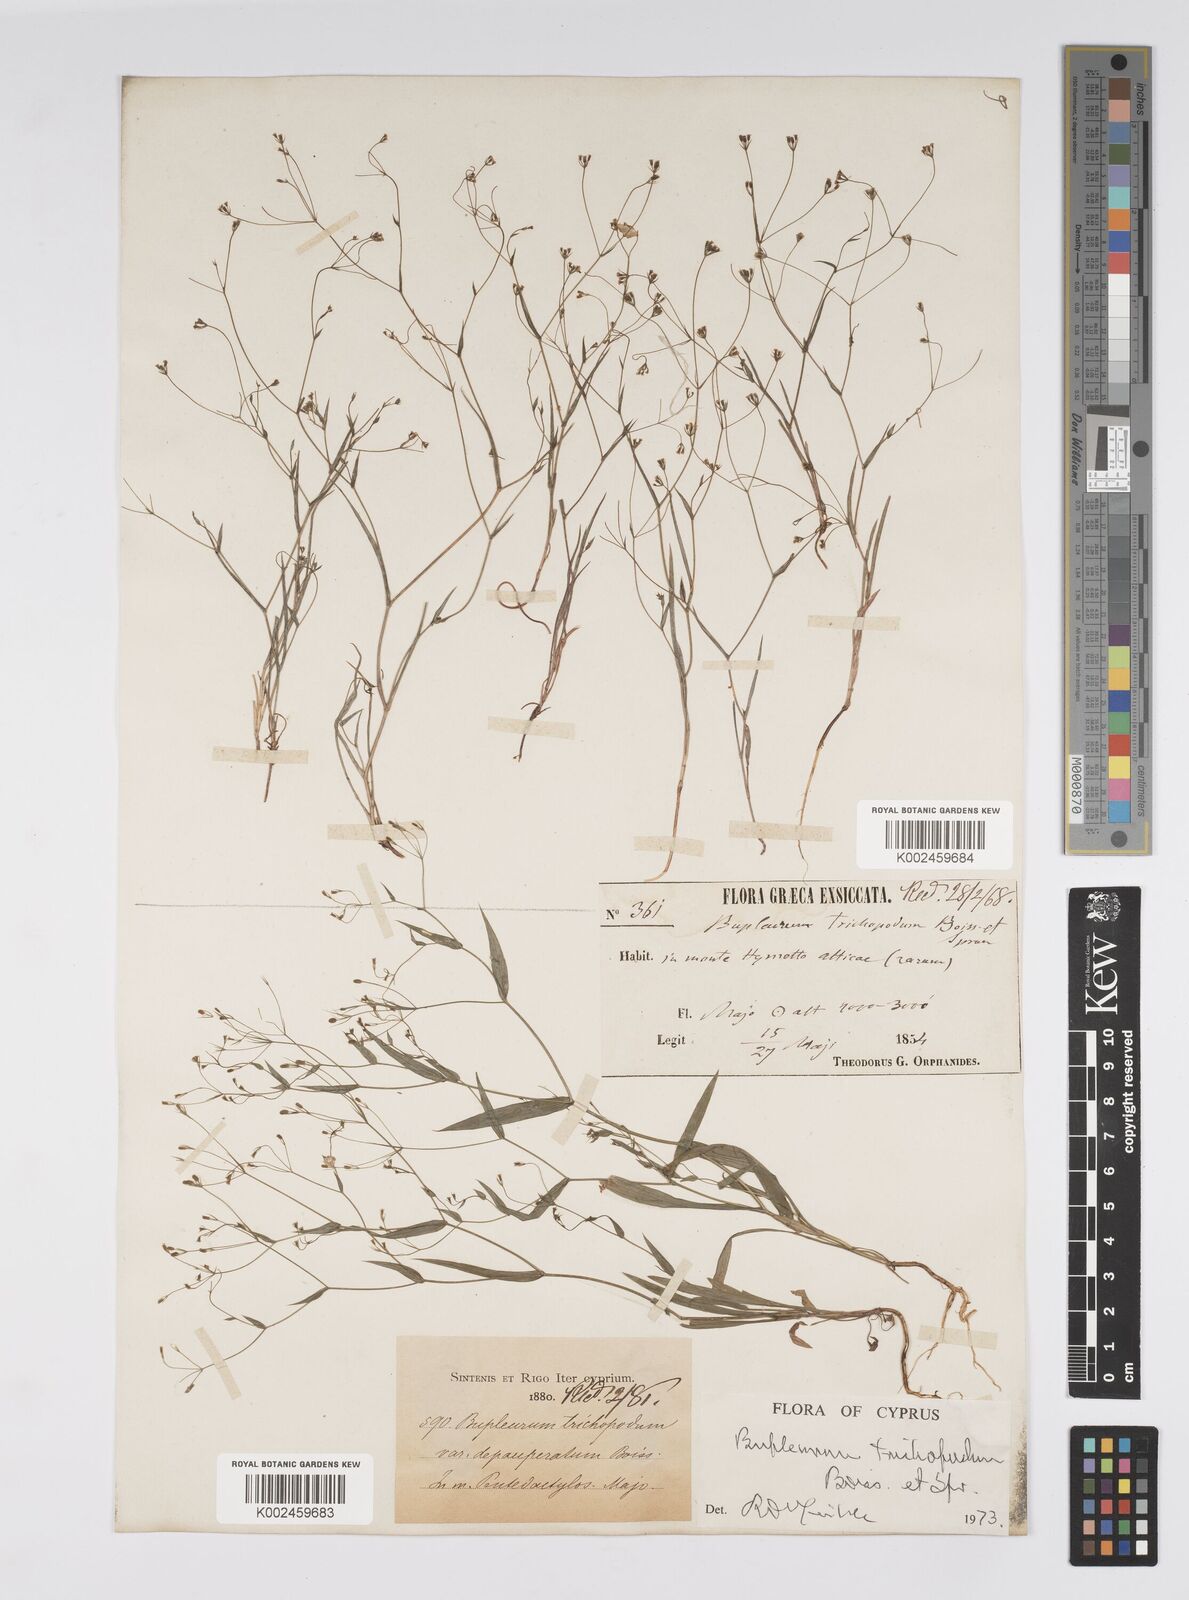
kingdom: Plantae
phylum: Tracheophyta
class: Magnoliopsida
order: Apiales
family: Apiaceae
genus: Bupleurum
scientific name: Bupleurum trichopodum
